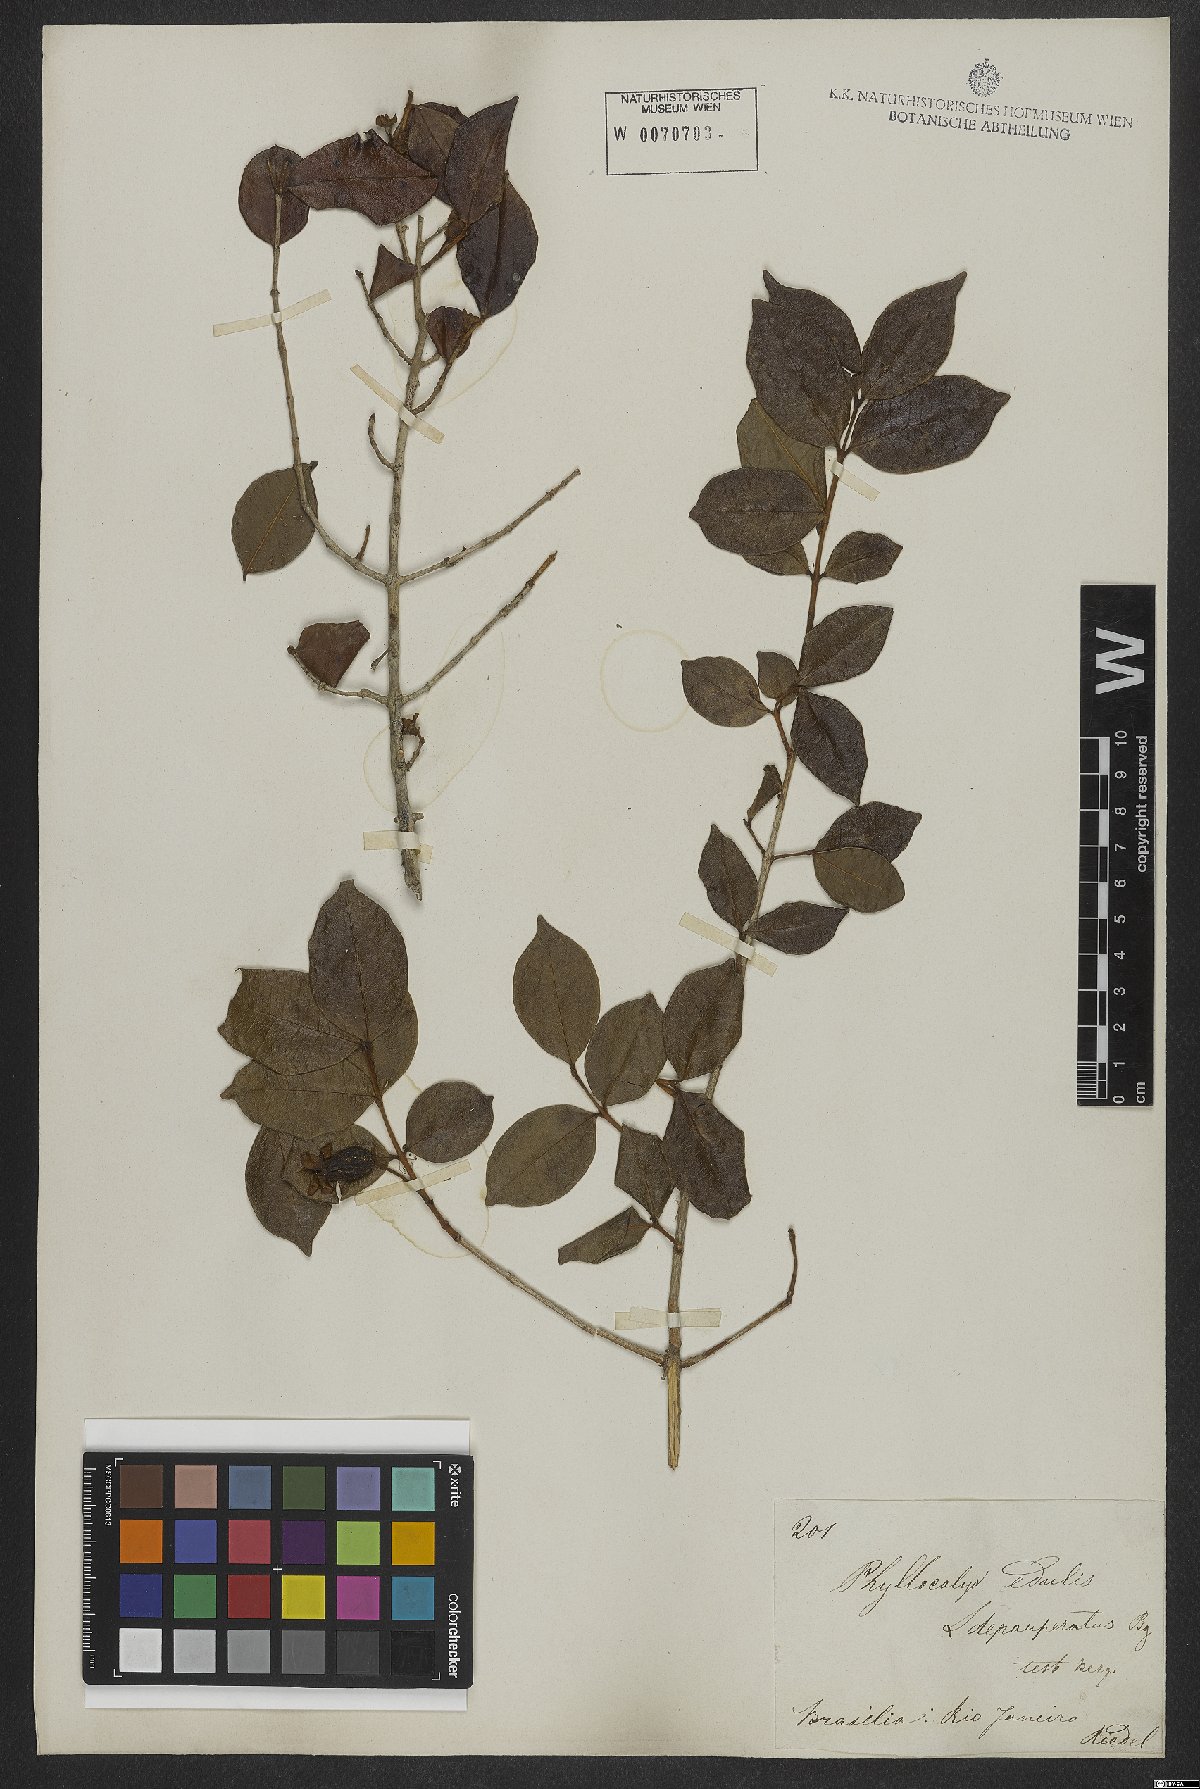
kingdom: Plantae
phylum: Tracheophyta
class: Magnoliopsida
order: Myrtales
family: Myrtaceae
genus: Eugenia
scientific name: Eugenia selloi
